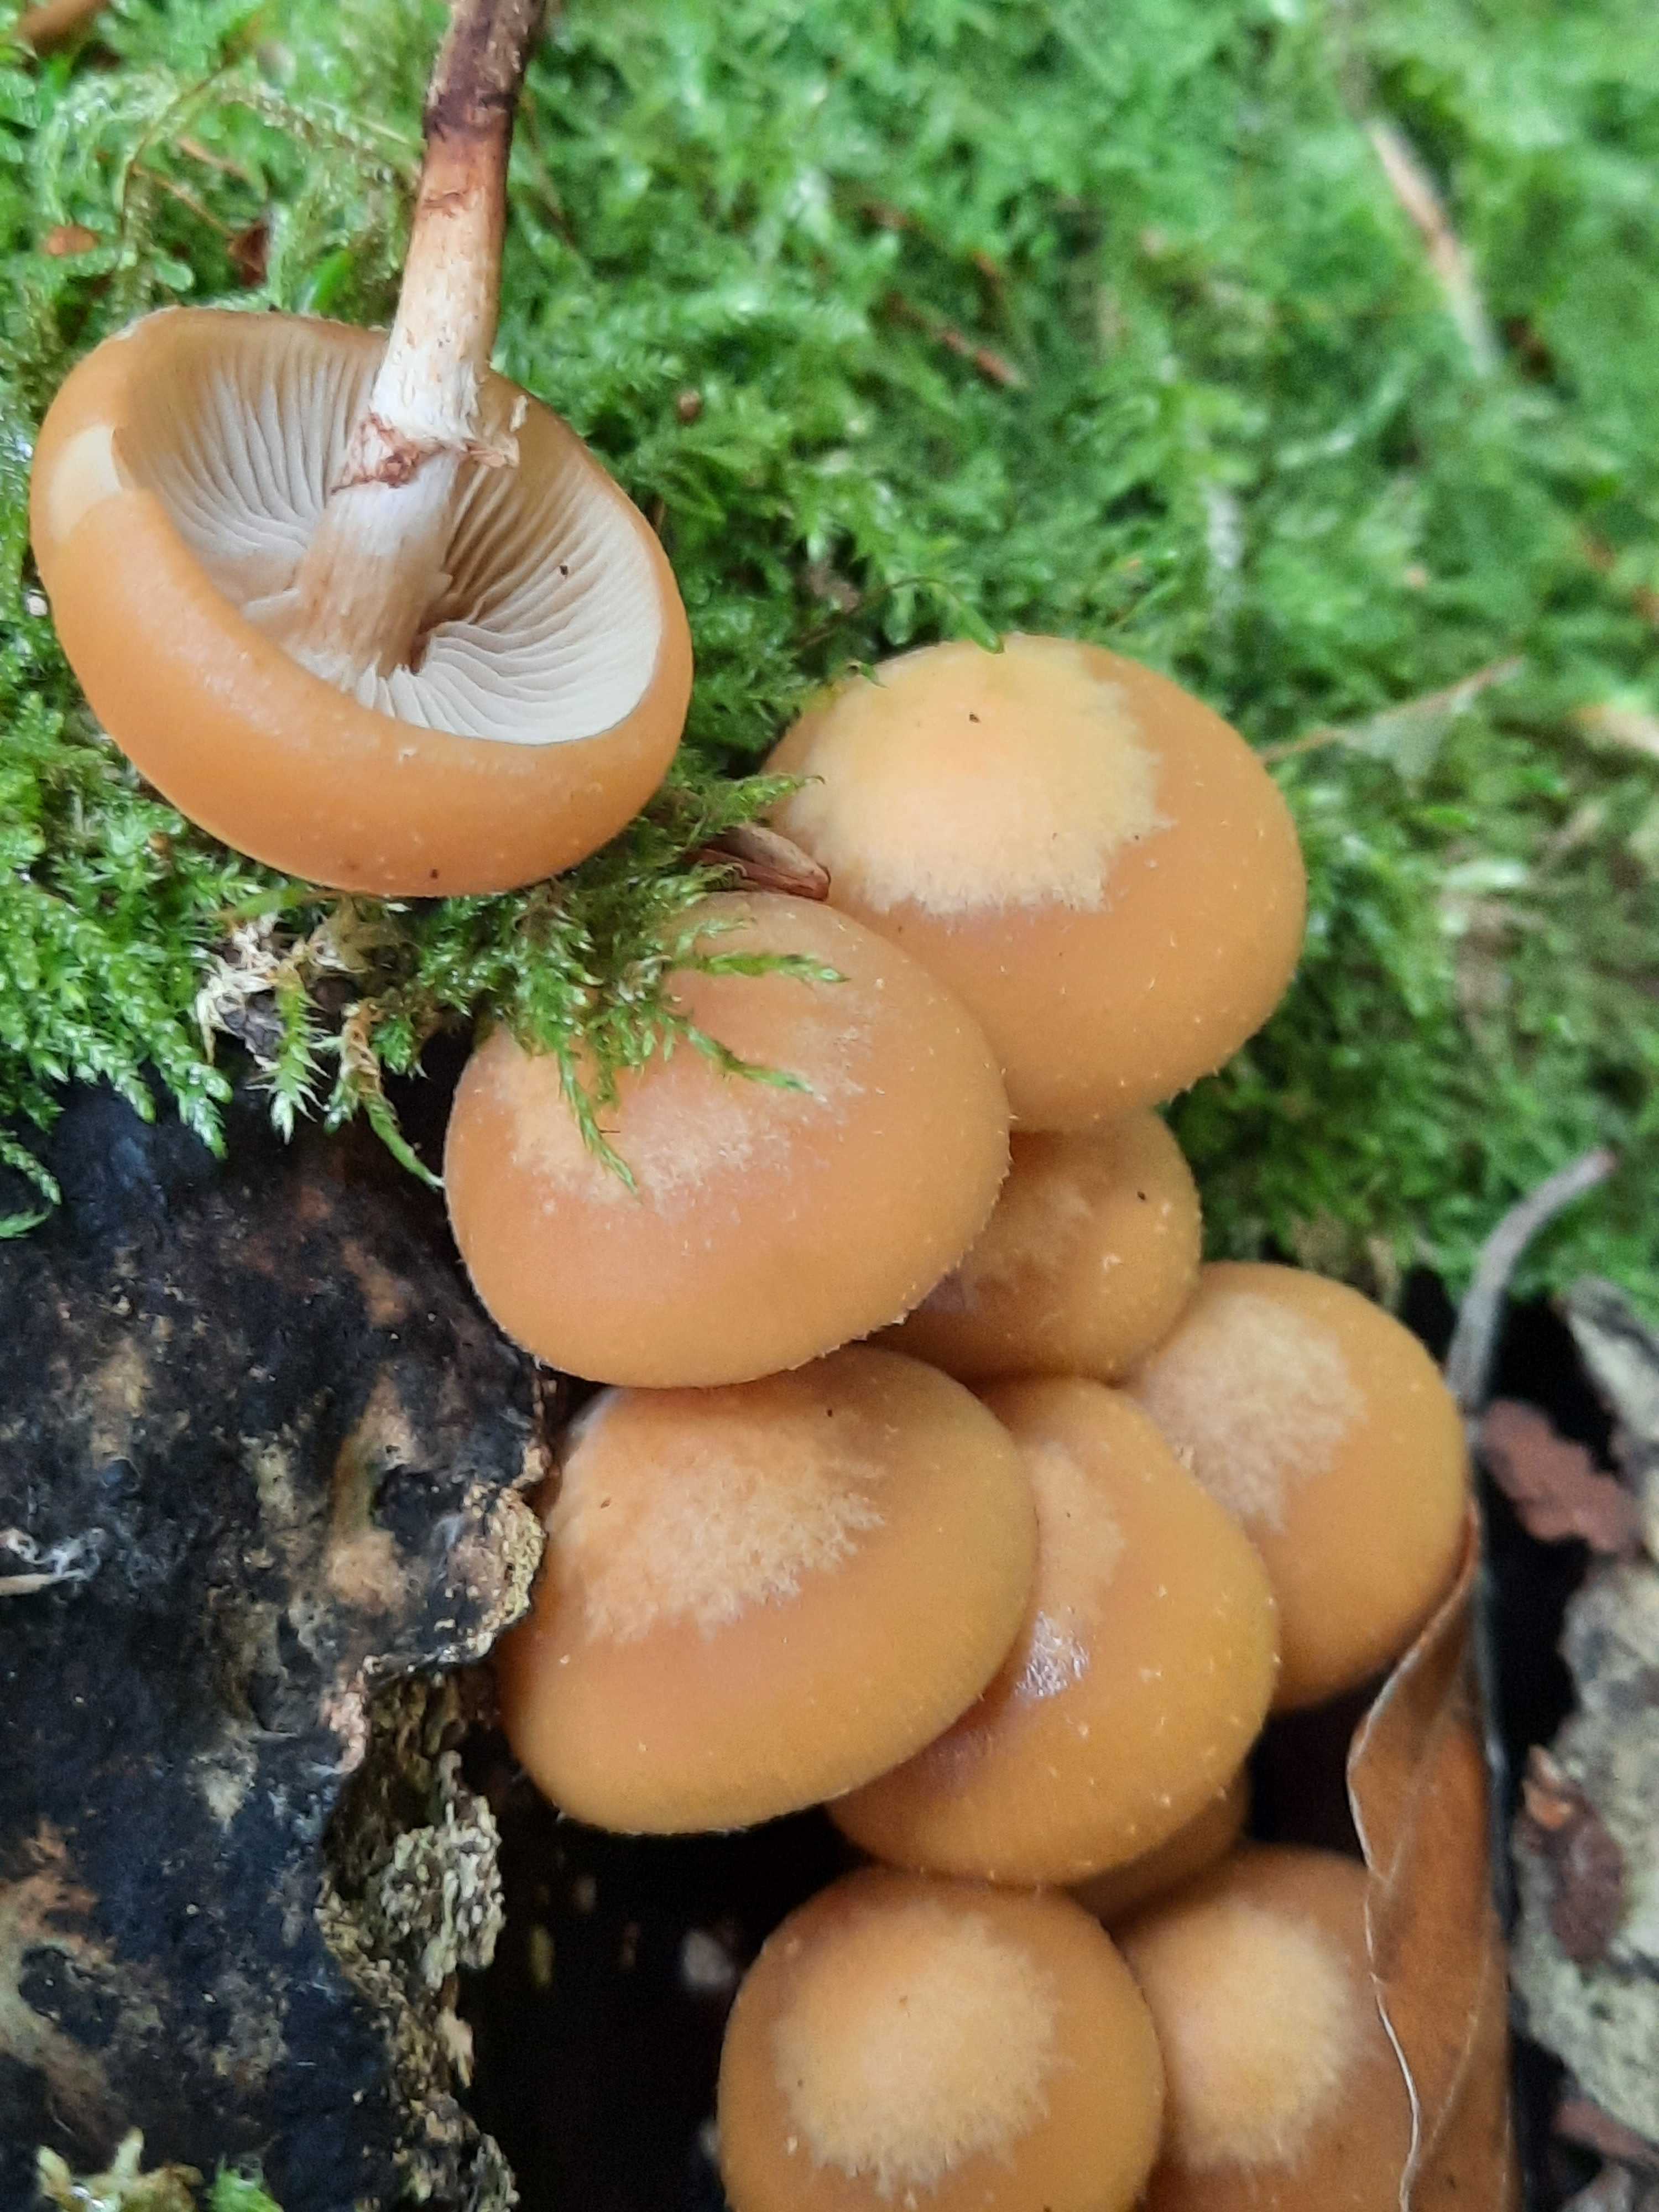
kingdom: Fungi
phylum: Basidiomycota
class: Agaricomycetes
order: Agaricales
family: Strophariaceae
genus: Kuehneromyces
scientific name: Kuehneromyces mutabilis
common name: foranderlig skælhat
